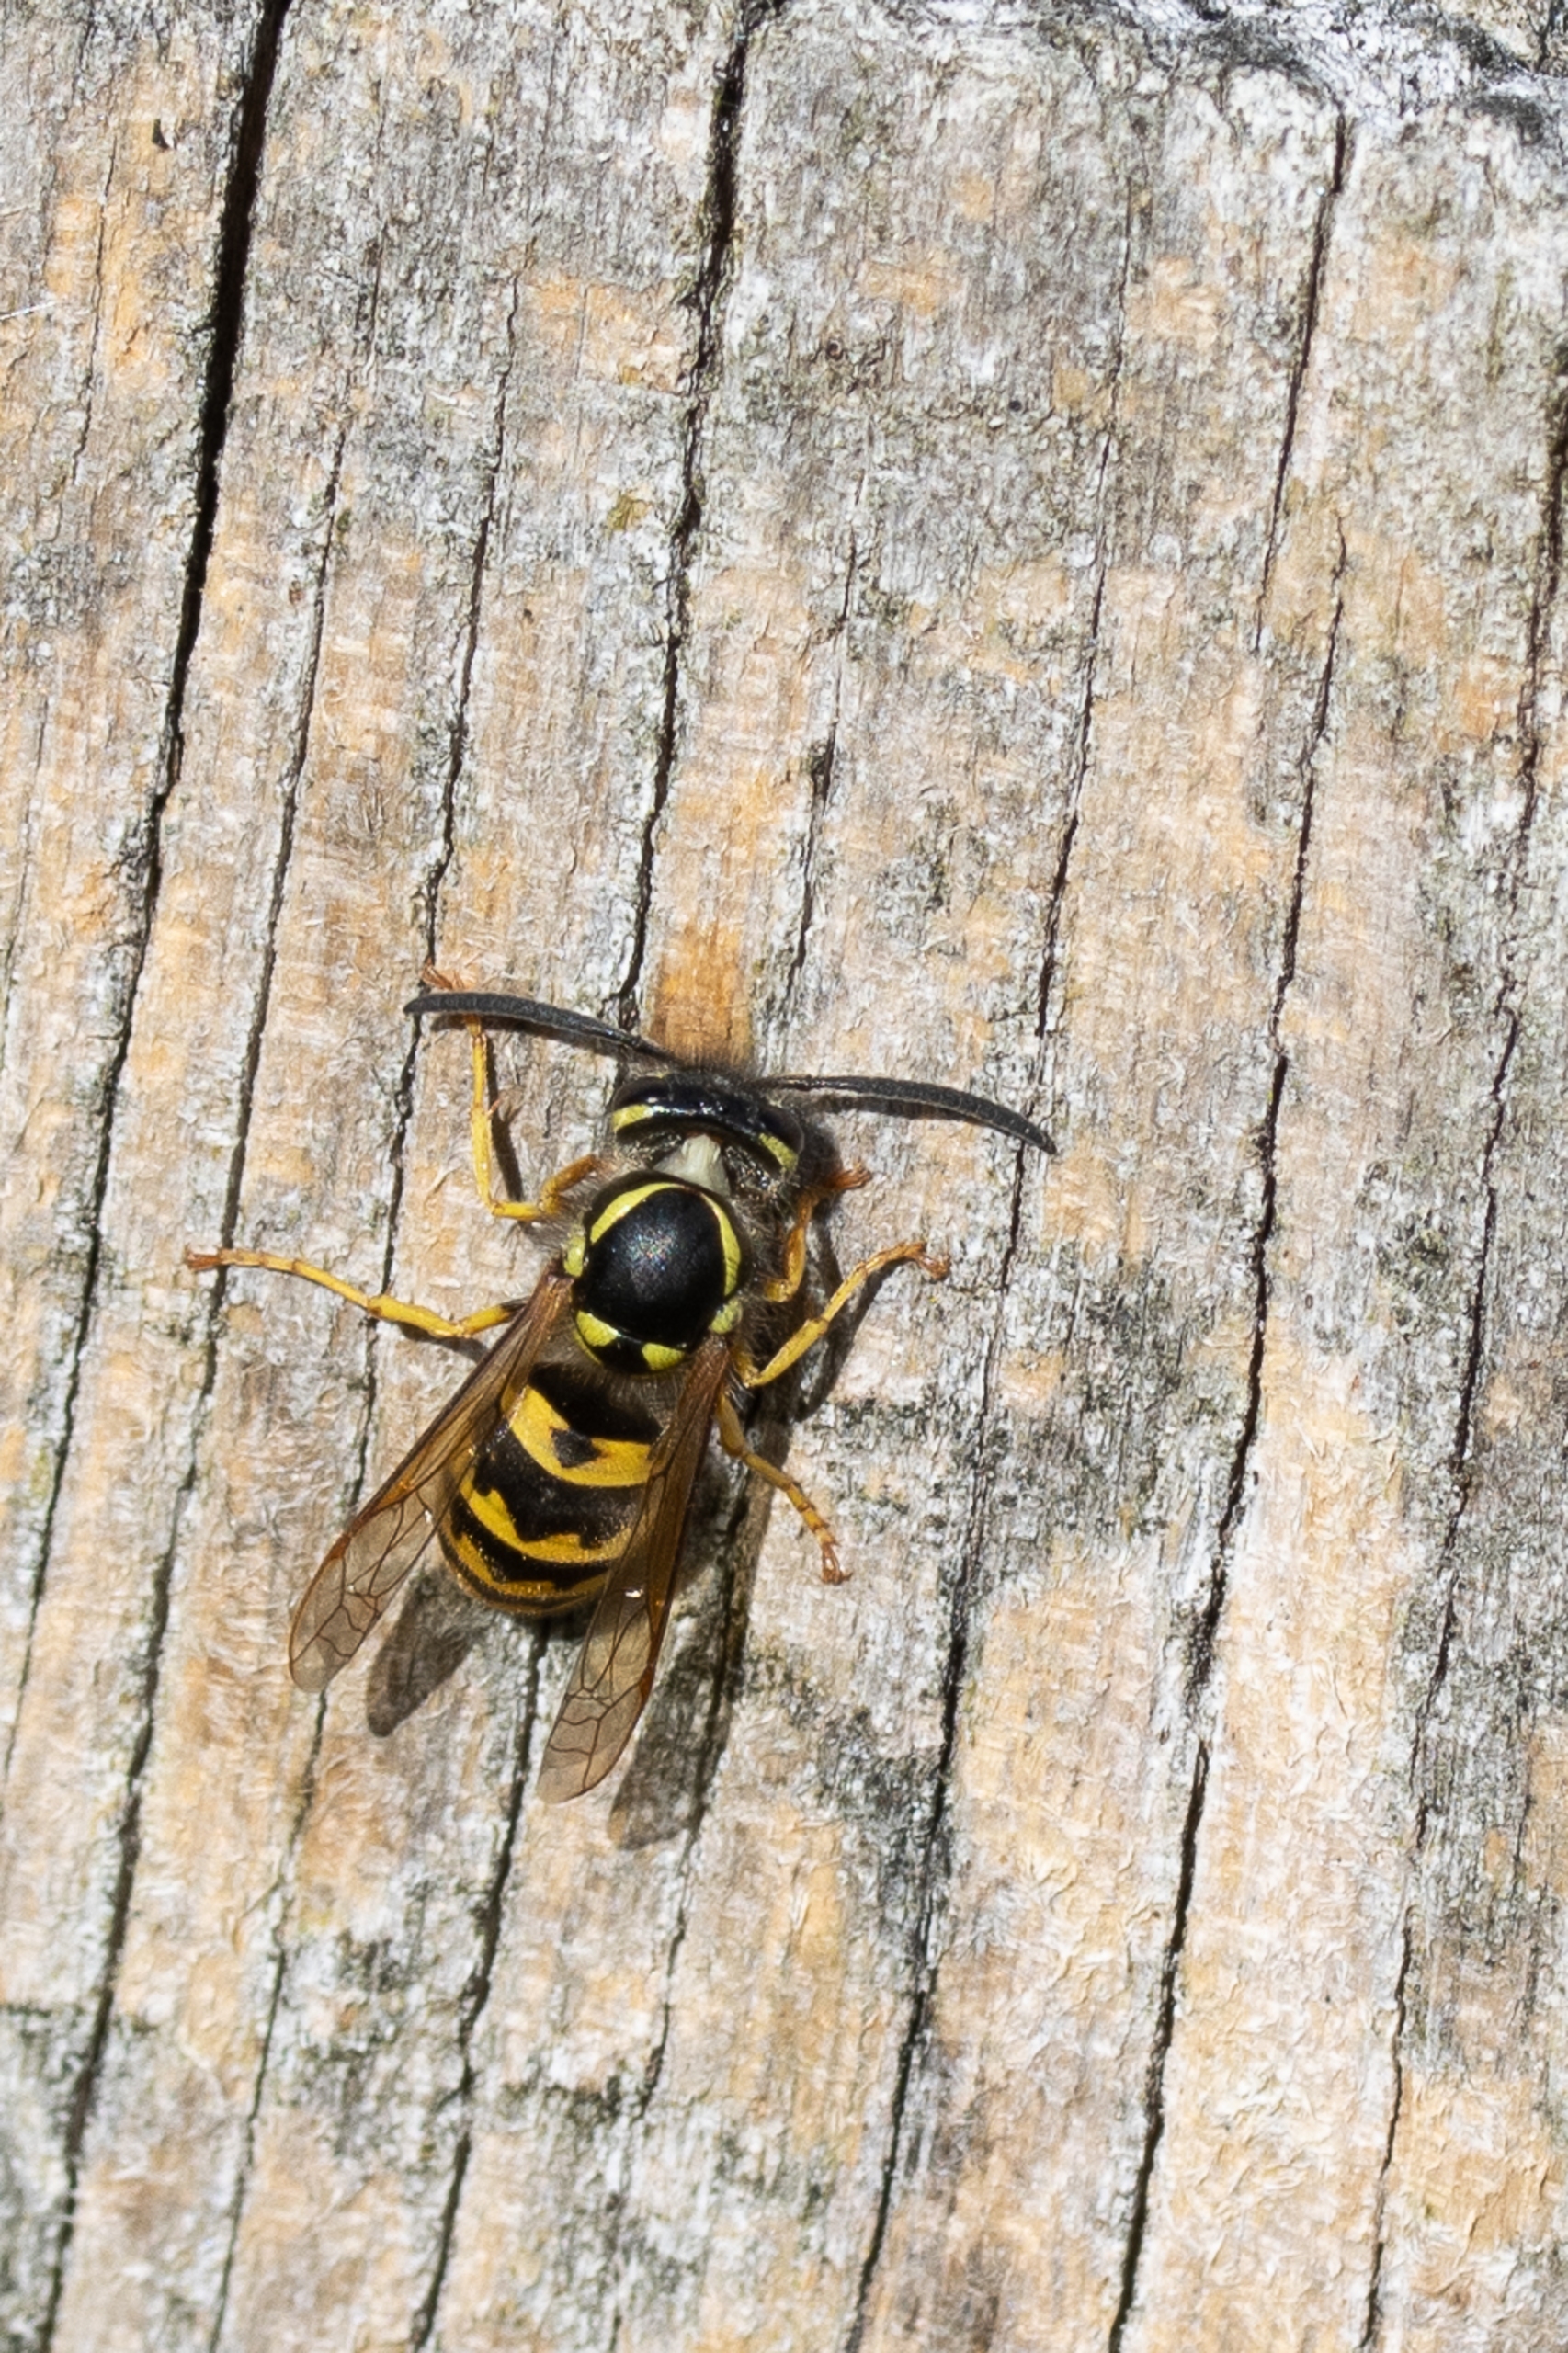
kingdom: Animalia
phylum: Arthropoda
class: Insecta
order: Hymenoptera
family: Vespidae
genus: Vespula
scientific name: Vespula germanica
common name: Tysk gedehams
